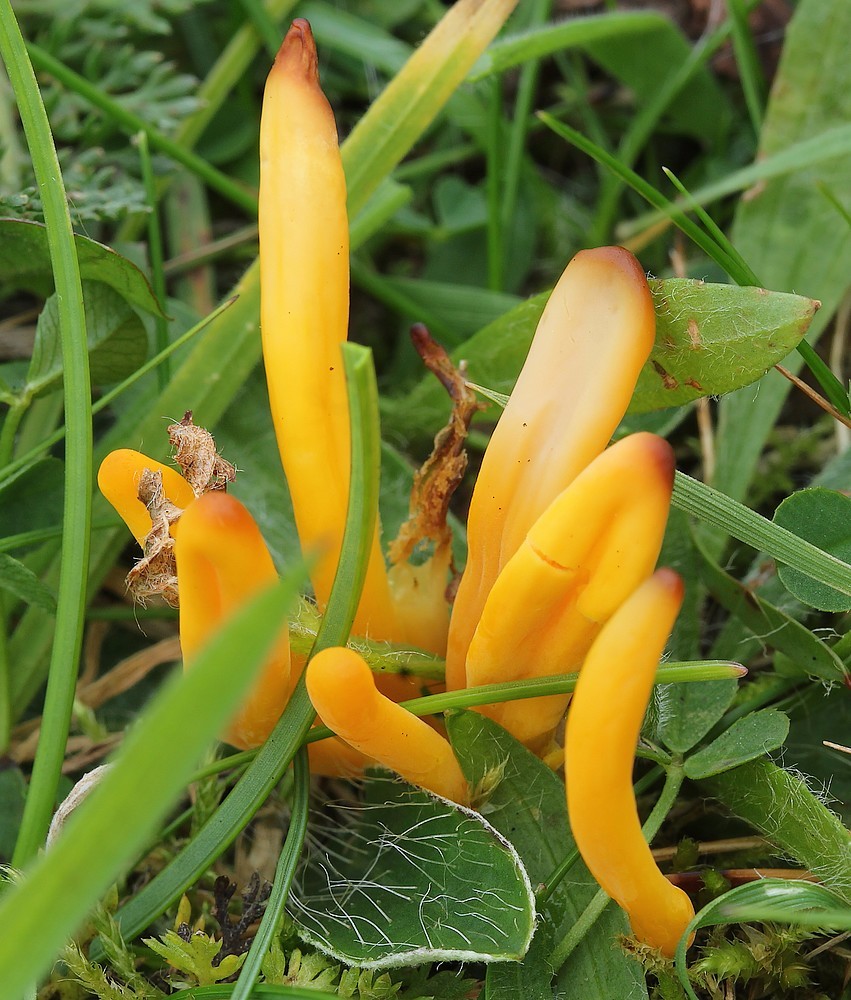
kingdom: Fungi
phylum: Basidiomycota
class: Agaricomycetes
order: Agaricales
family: Clavariaceae
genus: Clavulinopsis
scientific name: Clavulinopsis
